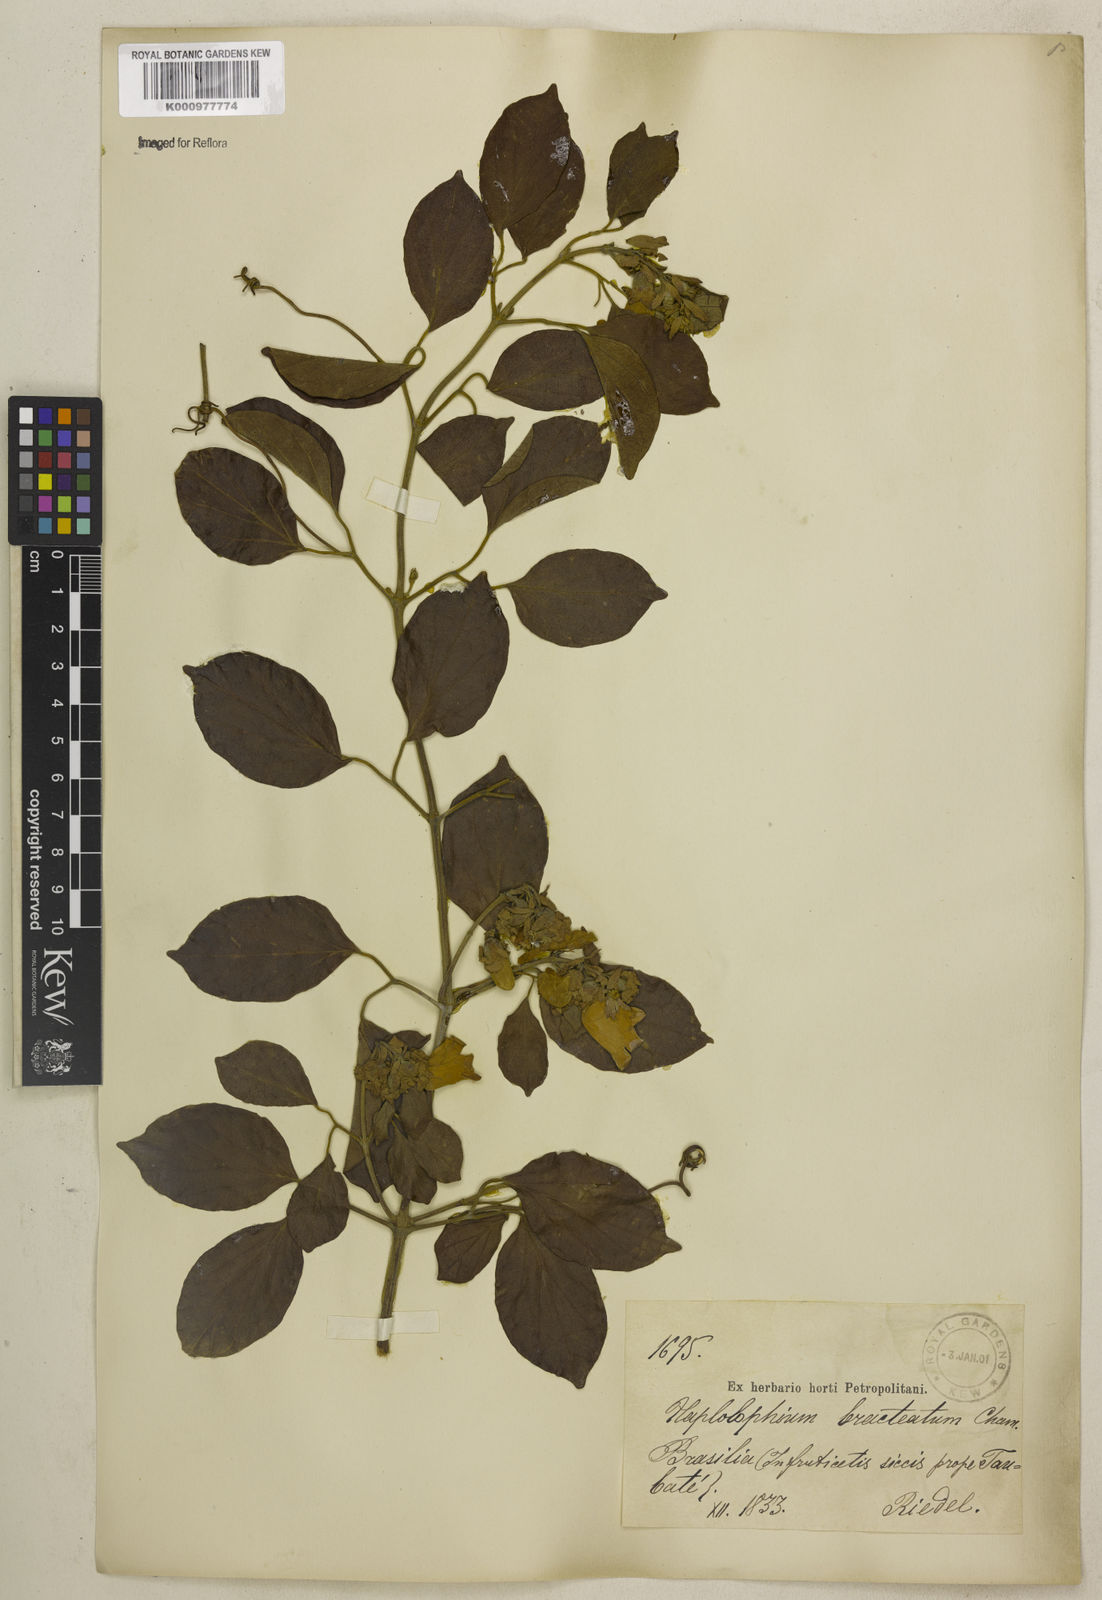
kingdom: Plantae
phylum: Tracheophyta
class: Magnoliopsida
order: Lamiales
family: Bignoniaceae
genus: Amphilophium
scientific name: Amphilophium bracteatum
